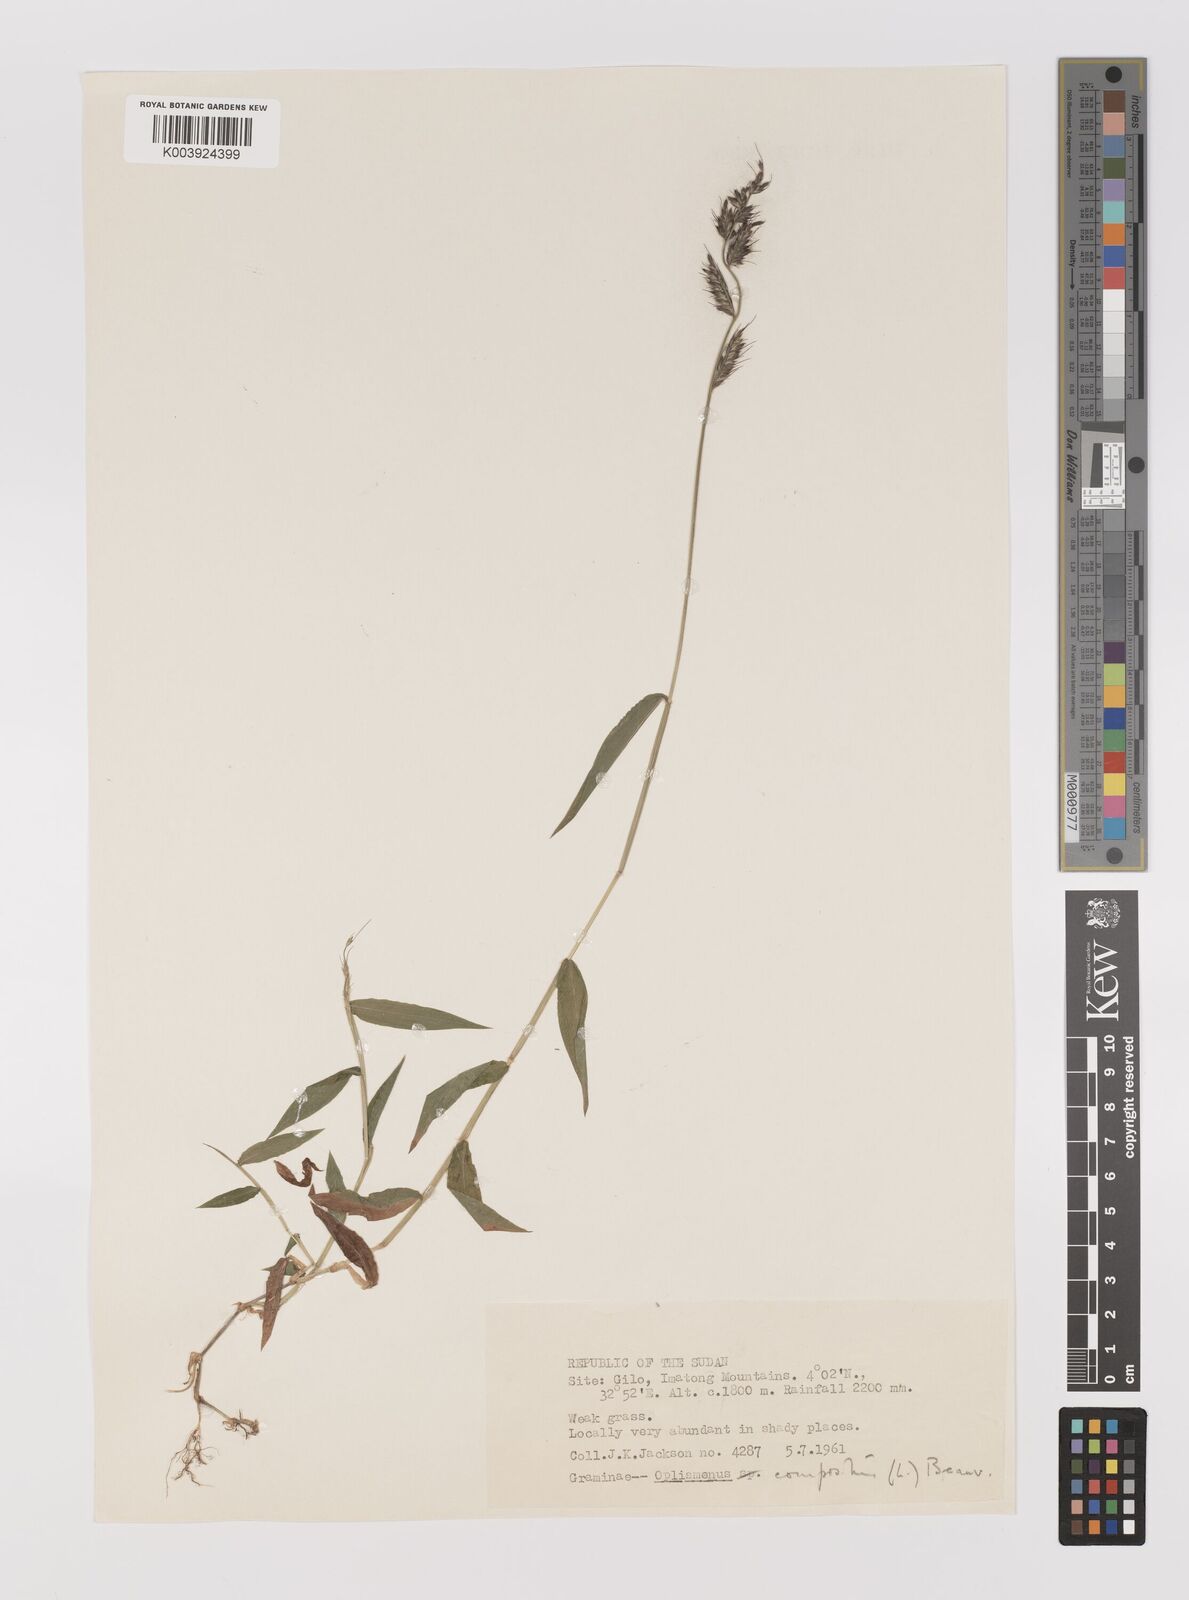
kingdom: Plantae
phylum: Tracheophyta
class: Liliopsida
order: Poales
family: Poaceae
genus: Oplismenus
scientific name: Oplismenus hirtellus
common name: Basketgrass
